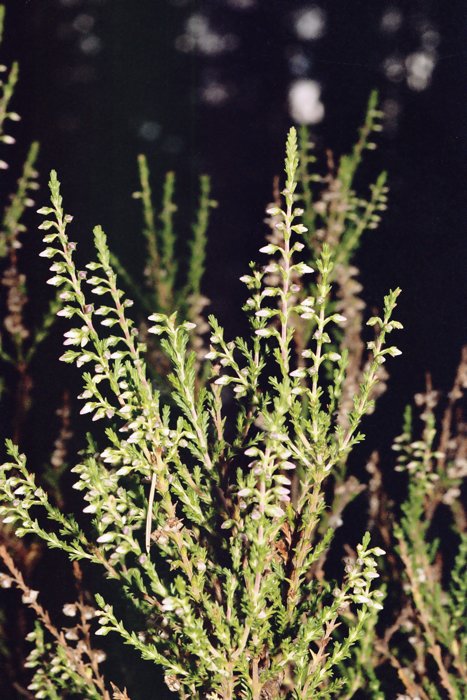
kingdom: Plantae
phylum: Tracheophyta
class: Magnoliopsida
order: Ericales
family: Ericaceae
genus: Calluna
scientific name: Calluna vulgaris
